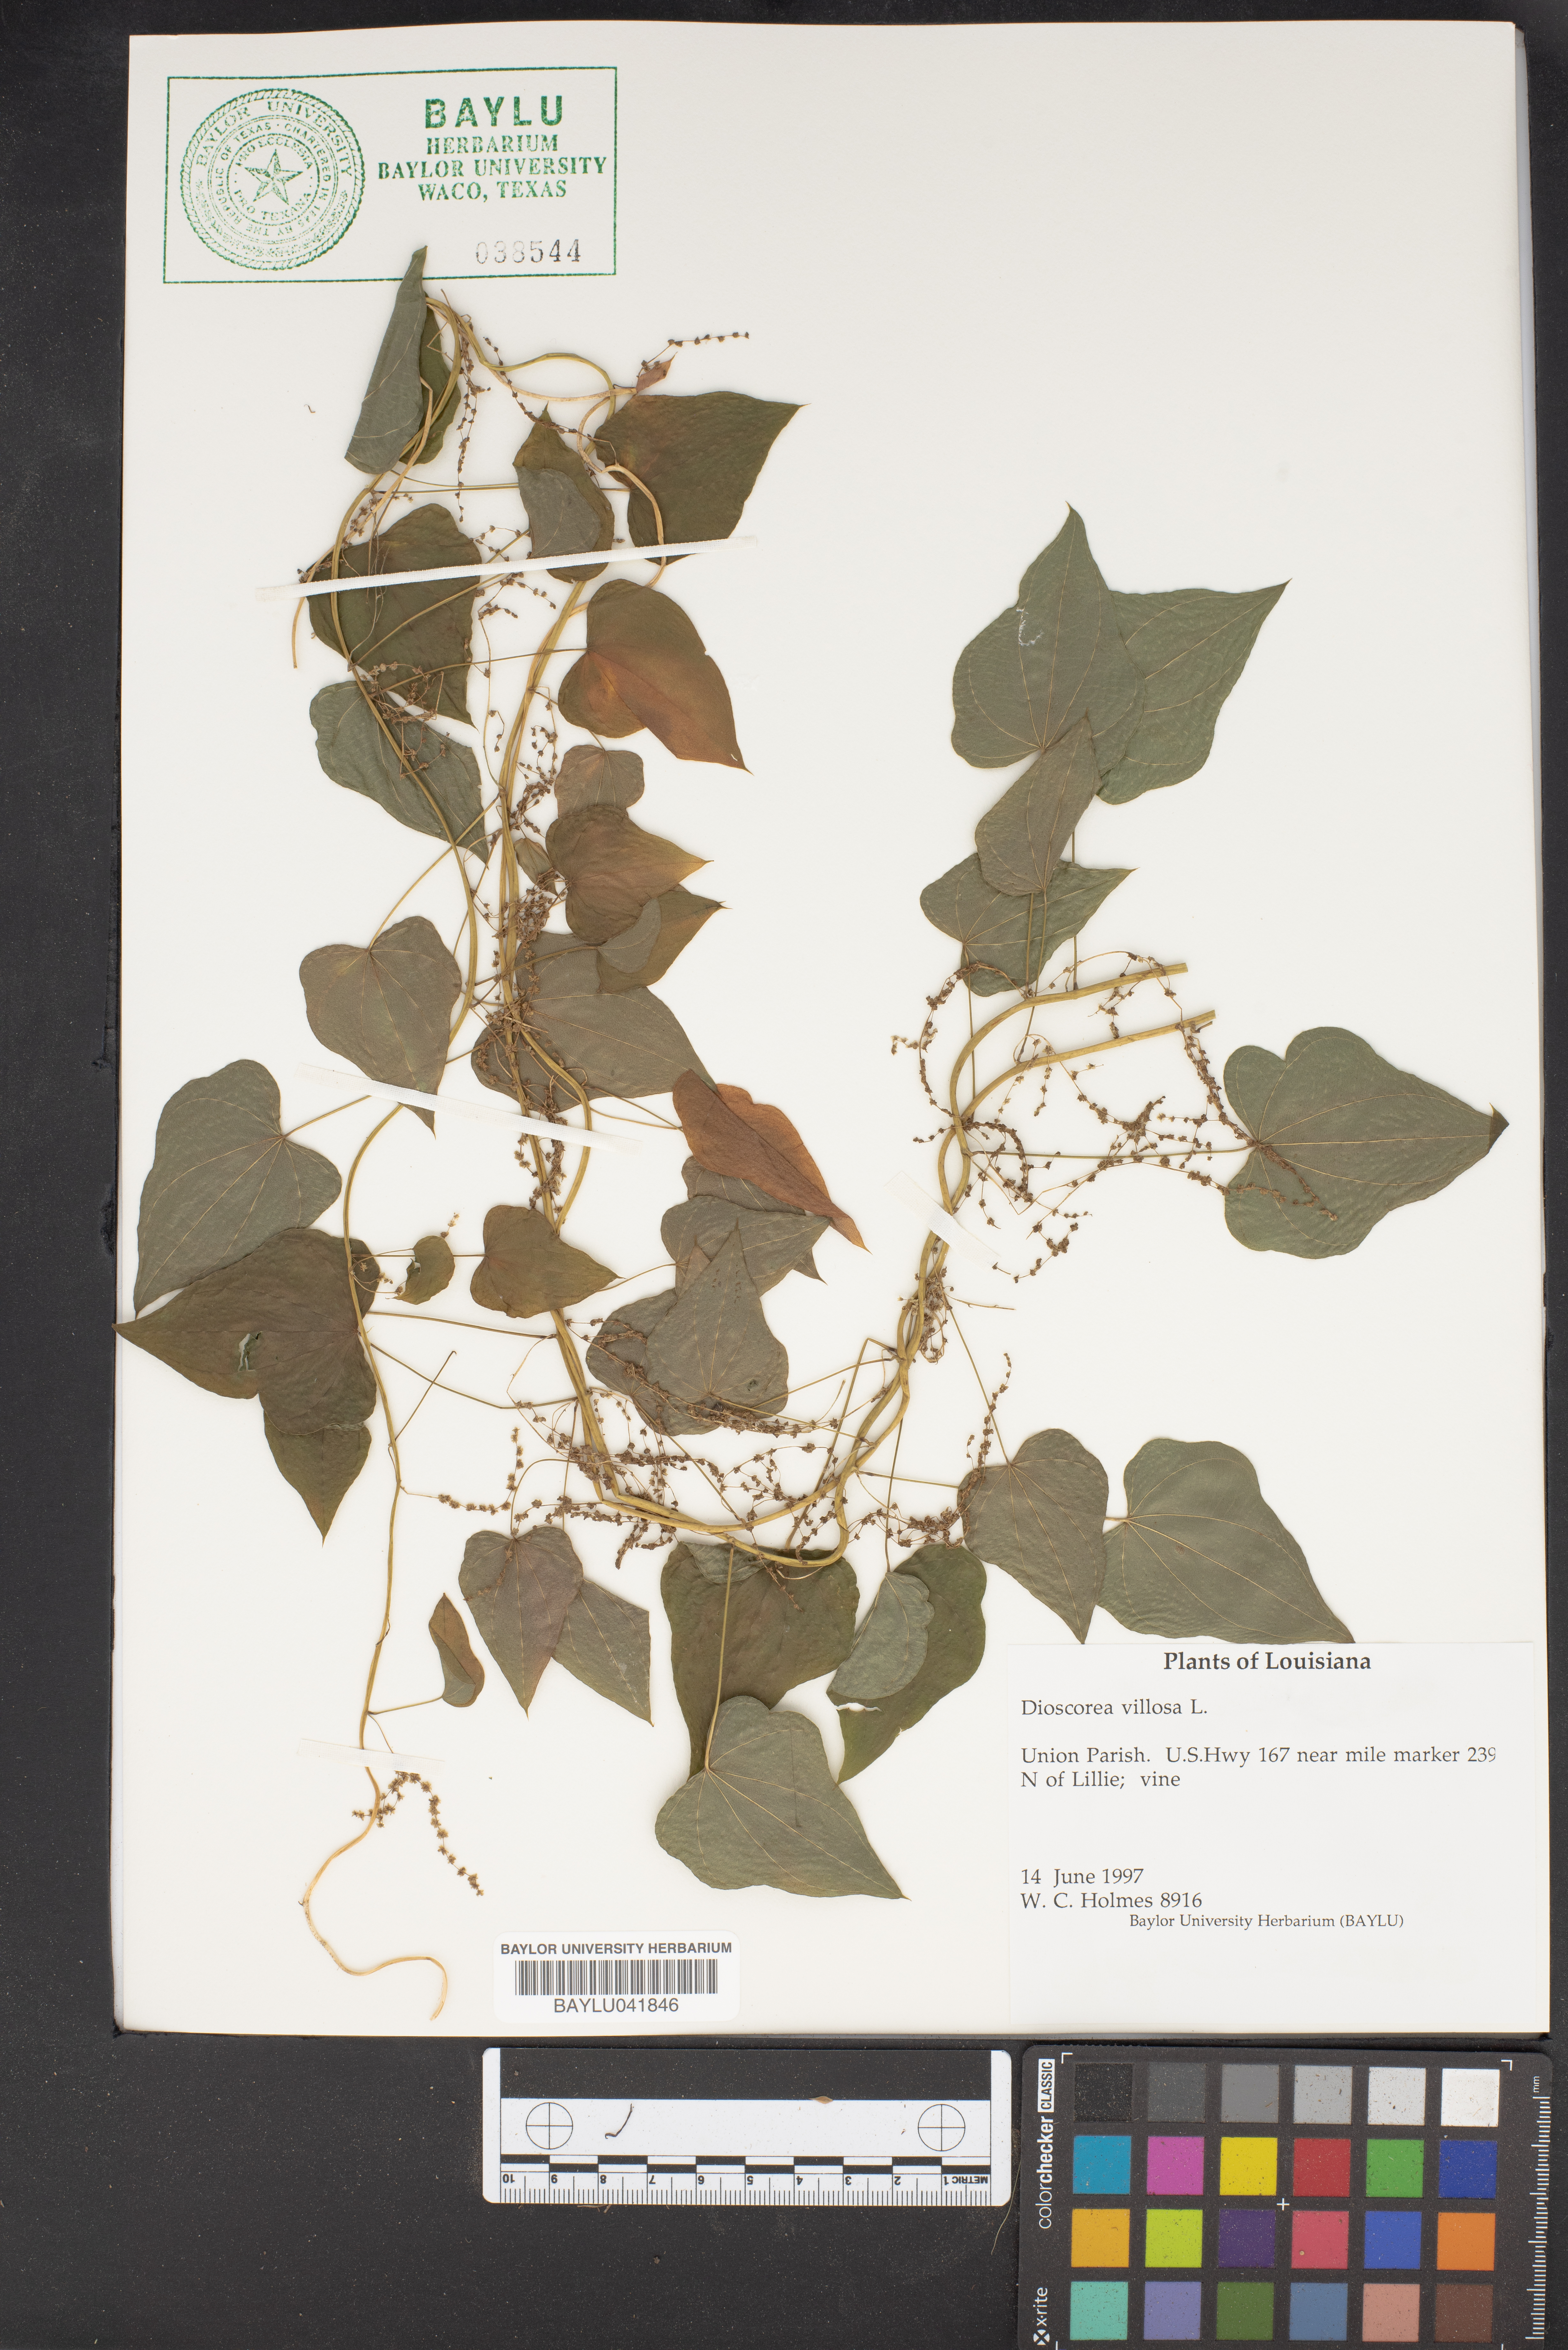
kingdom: Plantae
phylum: Tracheophyta
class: Liliopsida
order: Dioscoreales
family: Dioscoreaceae
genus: Dioscorea
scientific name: Dioscorea villosa
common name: Wild yam
